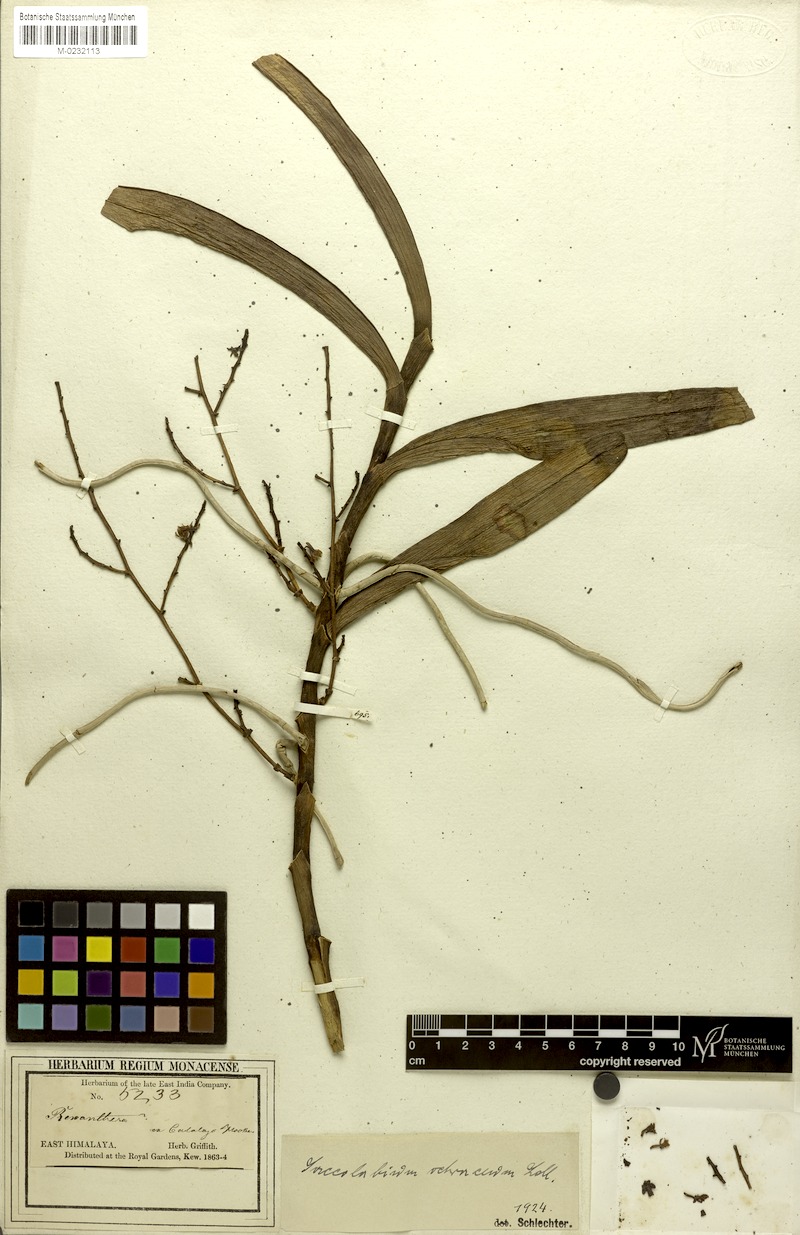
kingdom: Plantae
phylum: Tracheophyta
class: Liliopsida
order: Asparagales
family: Orchidaceae
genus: Acampe
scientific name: Acampe ochracea
